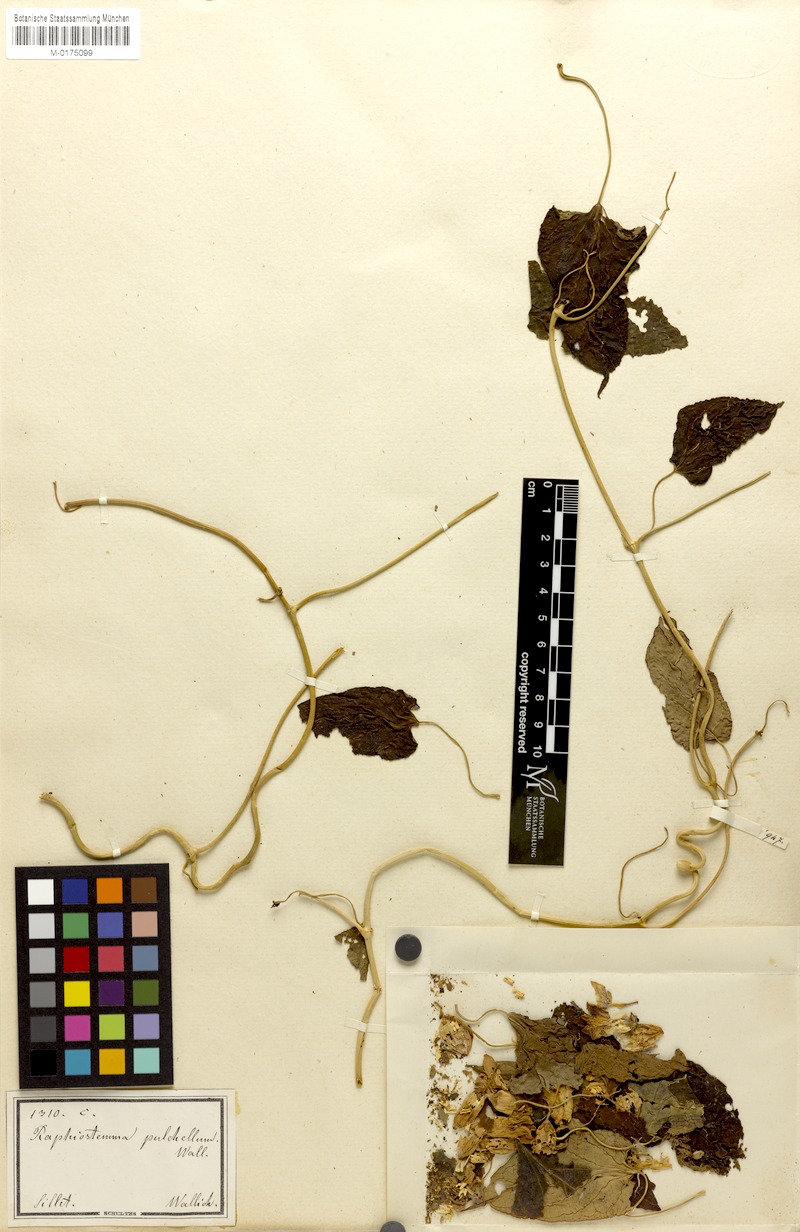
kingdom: Plantae
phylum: Tracheophyta
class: Magnoliopsida
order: Gentianales
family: Apocynaceae
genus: Cynanchum
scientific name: Cynanchum pulchellum
